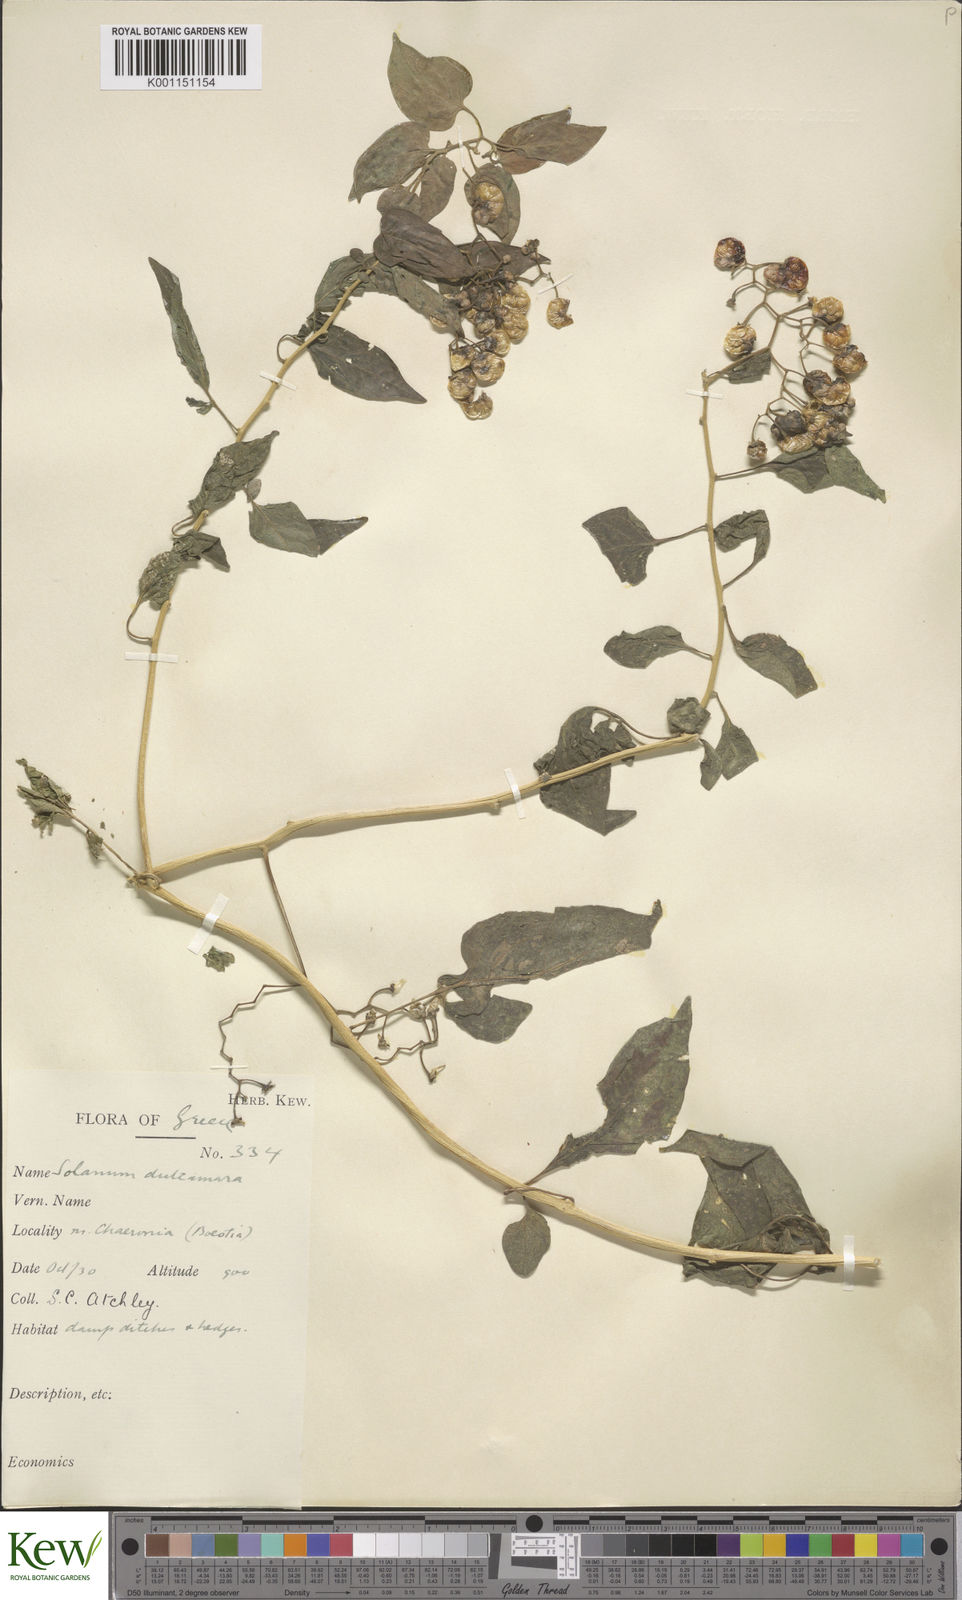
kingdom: Plantae
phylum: Tracheophyta
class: Magnoliopsida
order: Solanales
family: Solanaceae
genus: Solanum
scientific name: Solanum dulcamara
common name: Climbing nightshade
